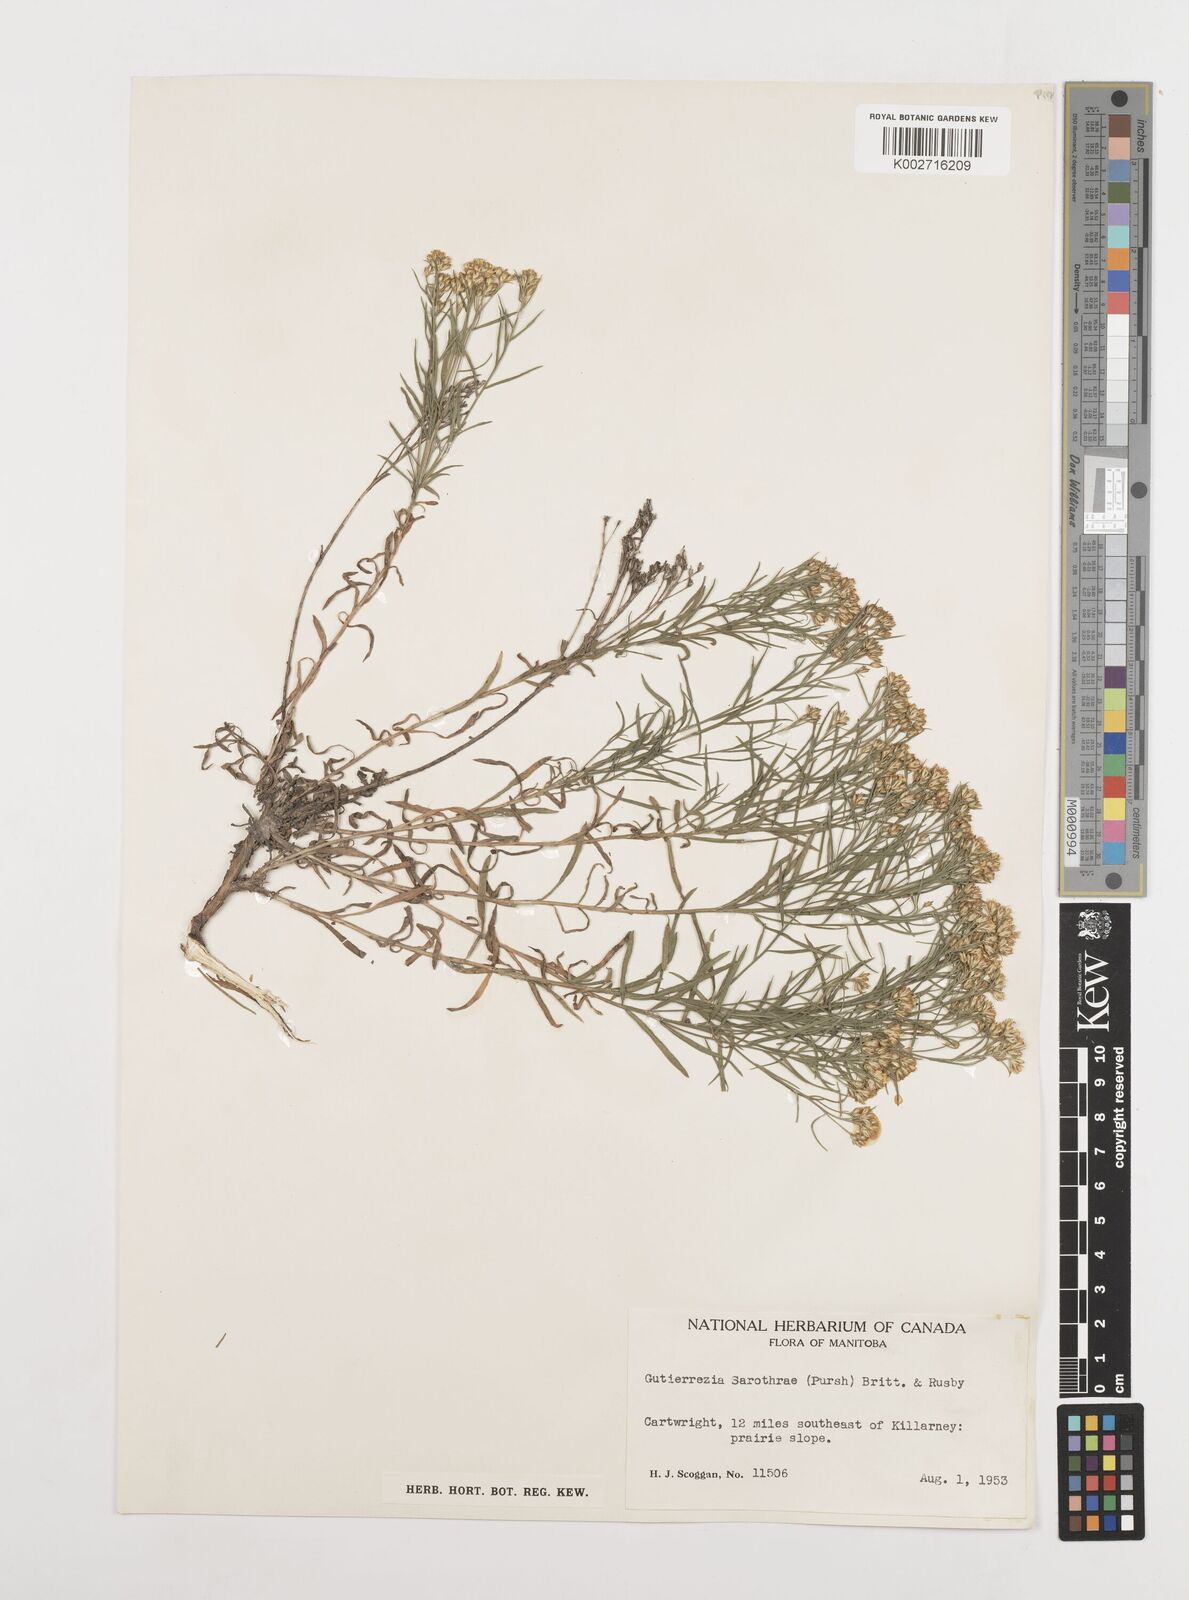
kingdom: Plantae
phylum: Tracheophyta
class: Magnoliopsida
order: Asterales
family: Asteraceae
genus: Gutierrezia
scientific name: Gutierrezia sarothrae
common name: Broom snakeweed
